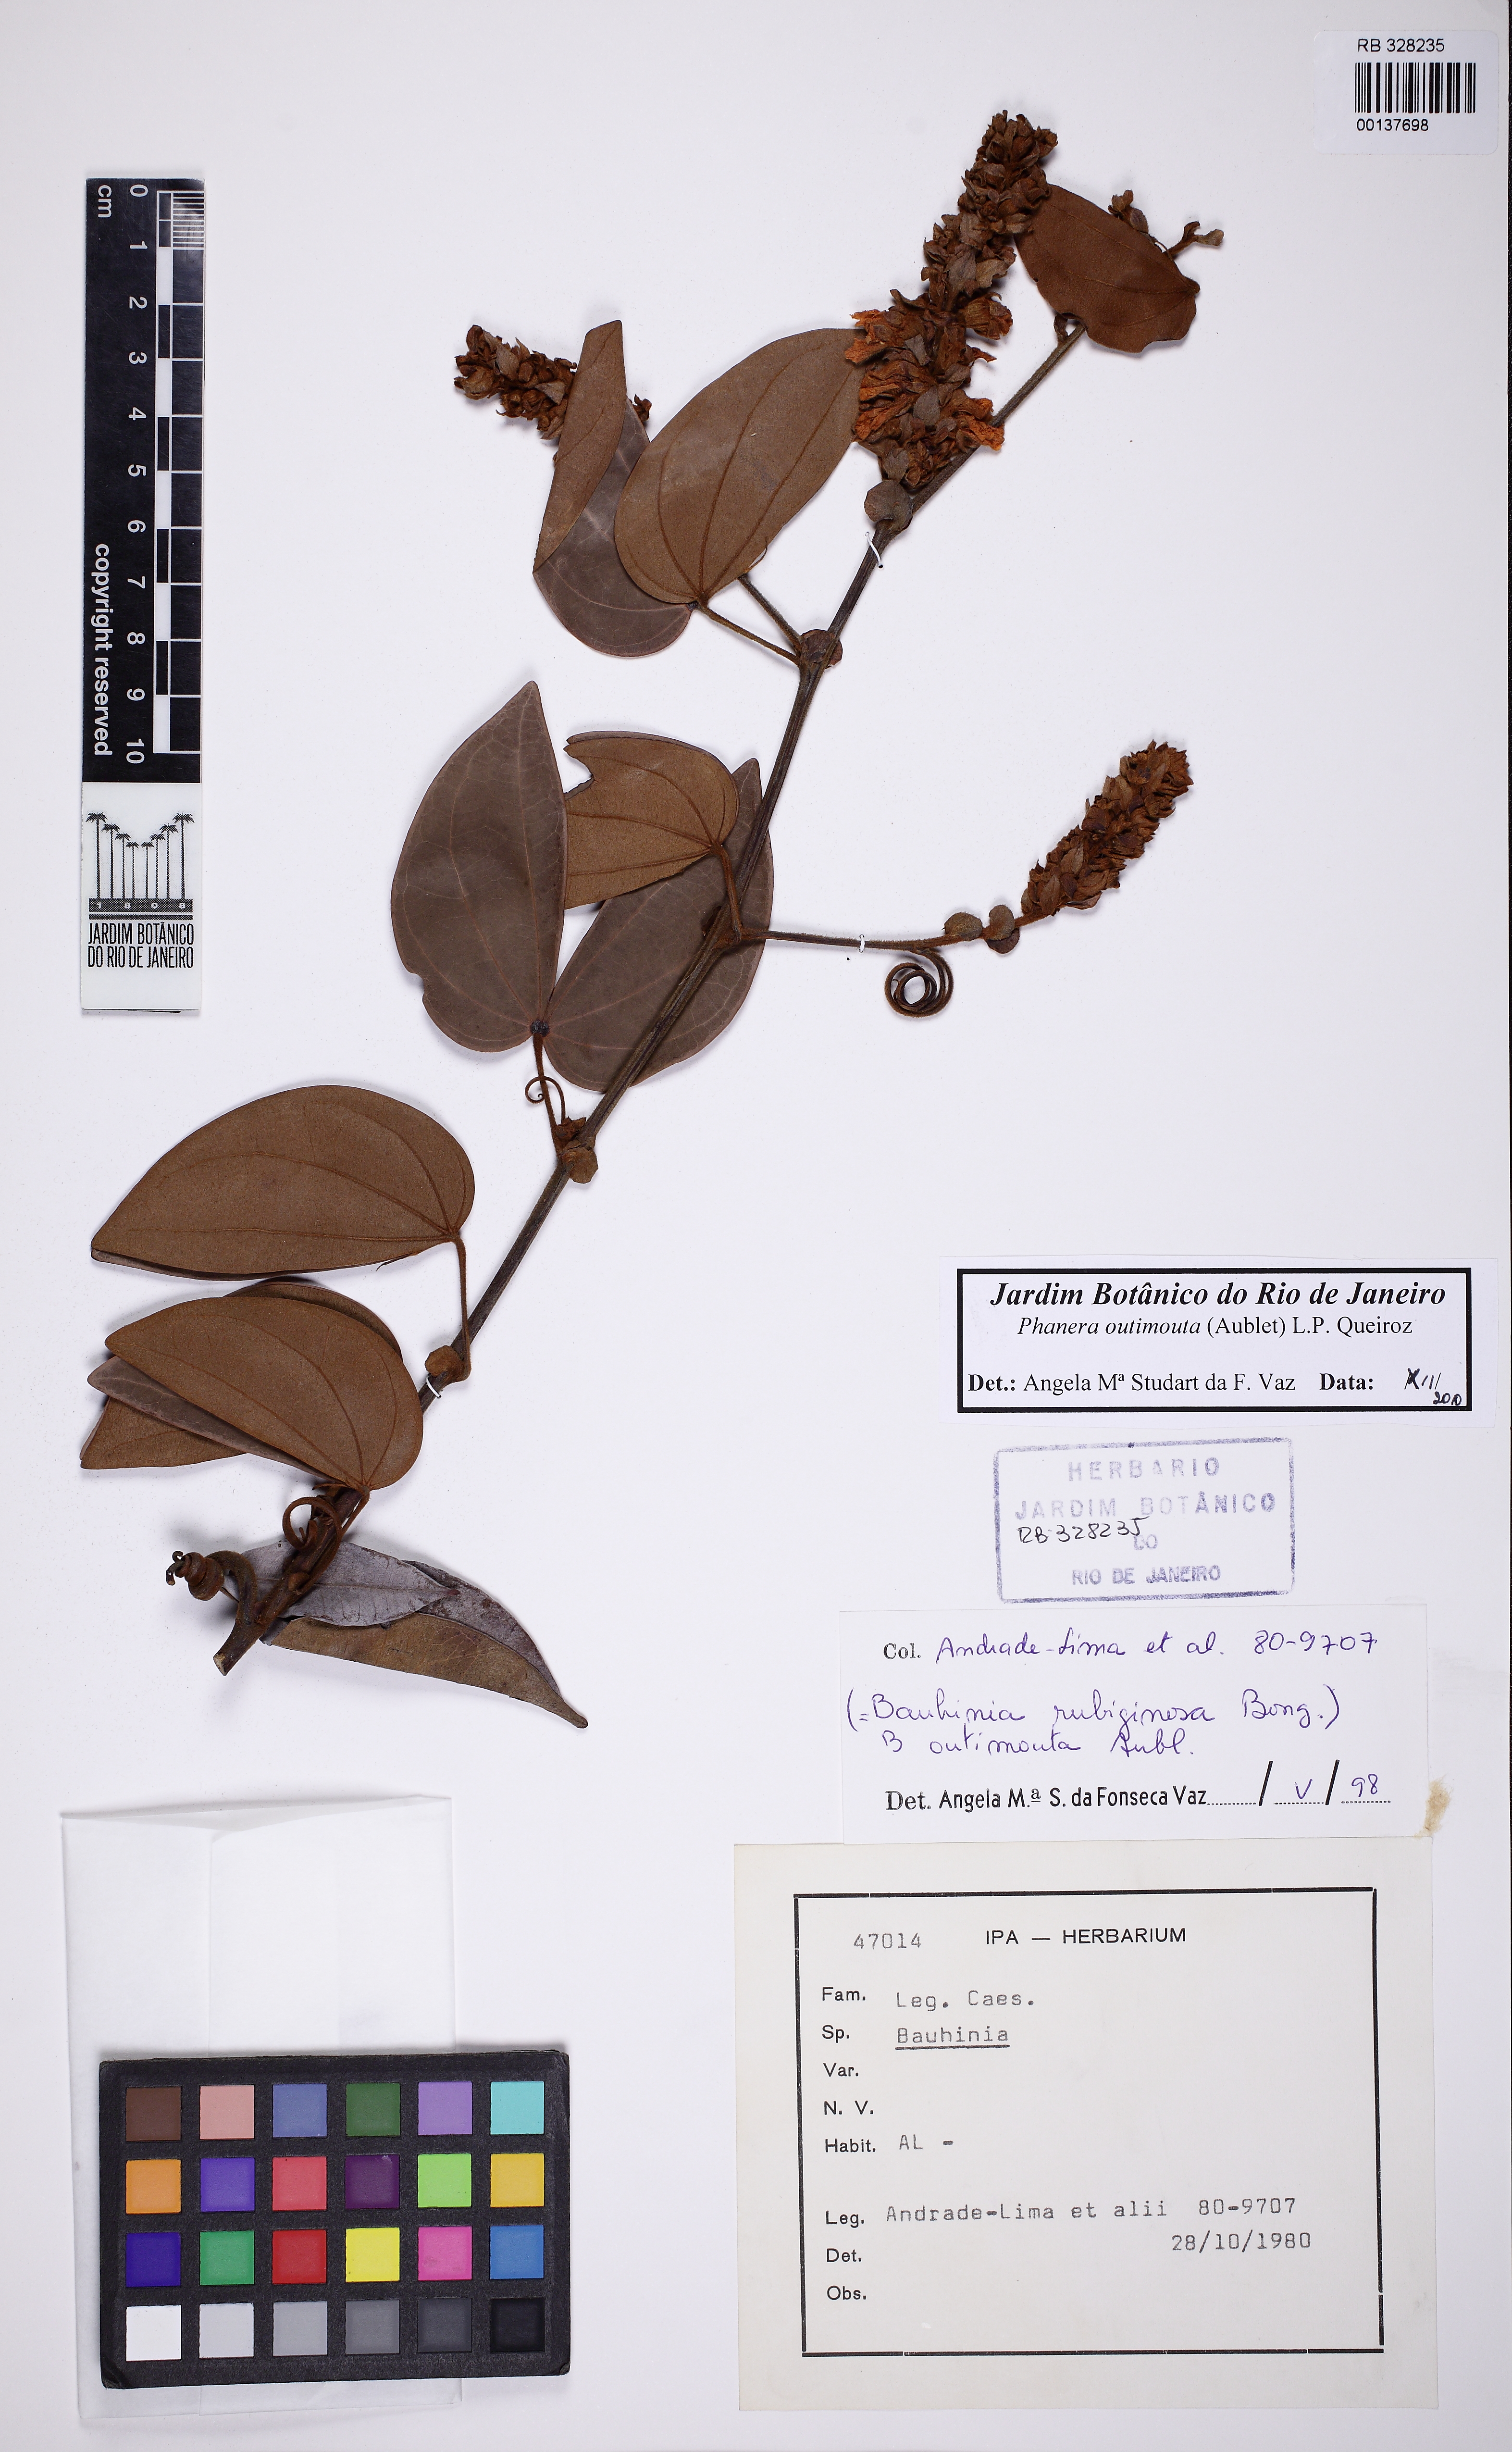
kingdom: Plantae
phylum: Tracheophyta
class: Magnoliopsida
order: Fabales
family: Fabaceae
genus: Schnella
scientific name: Schnella outimouta
